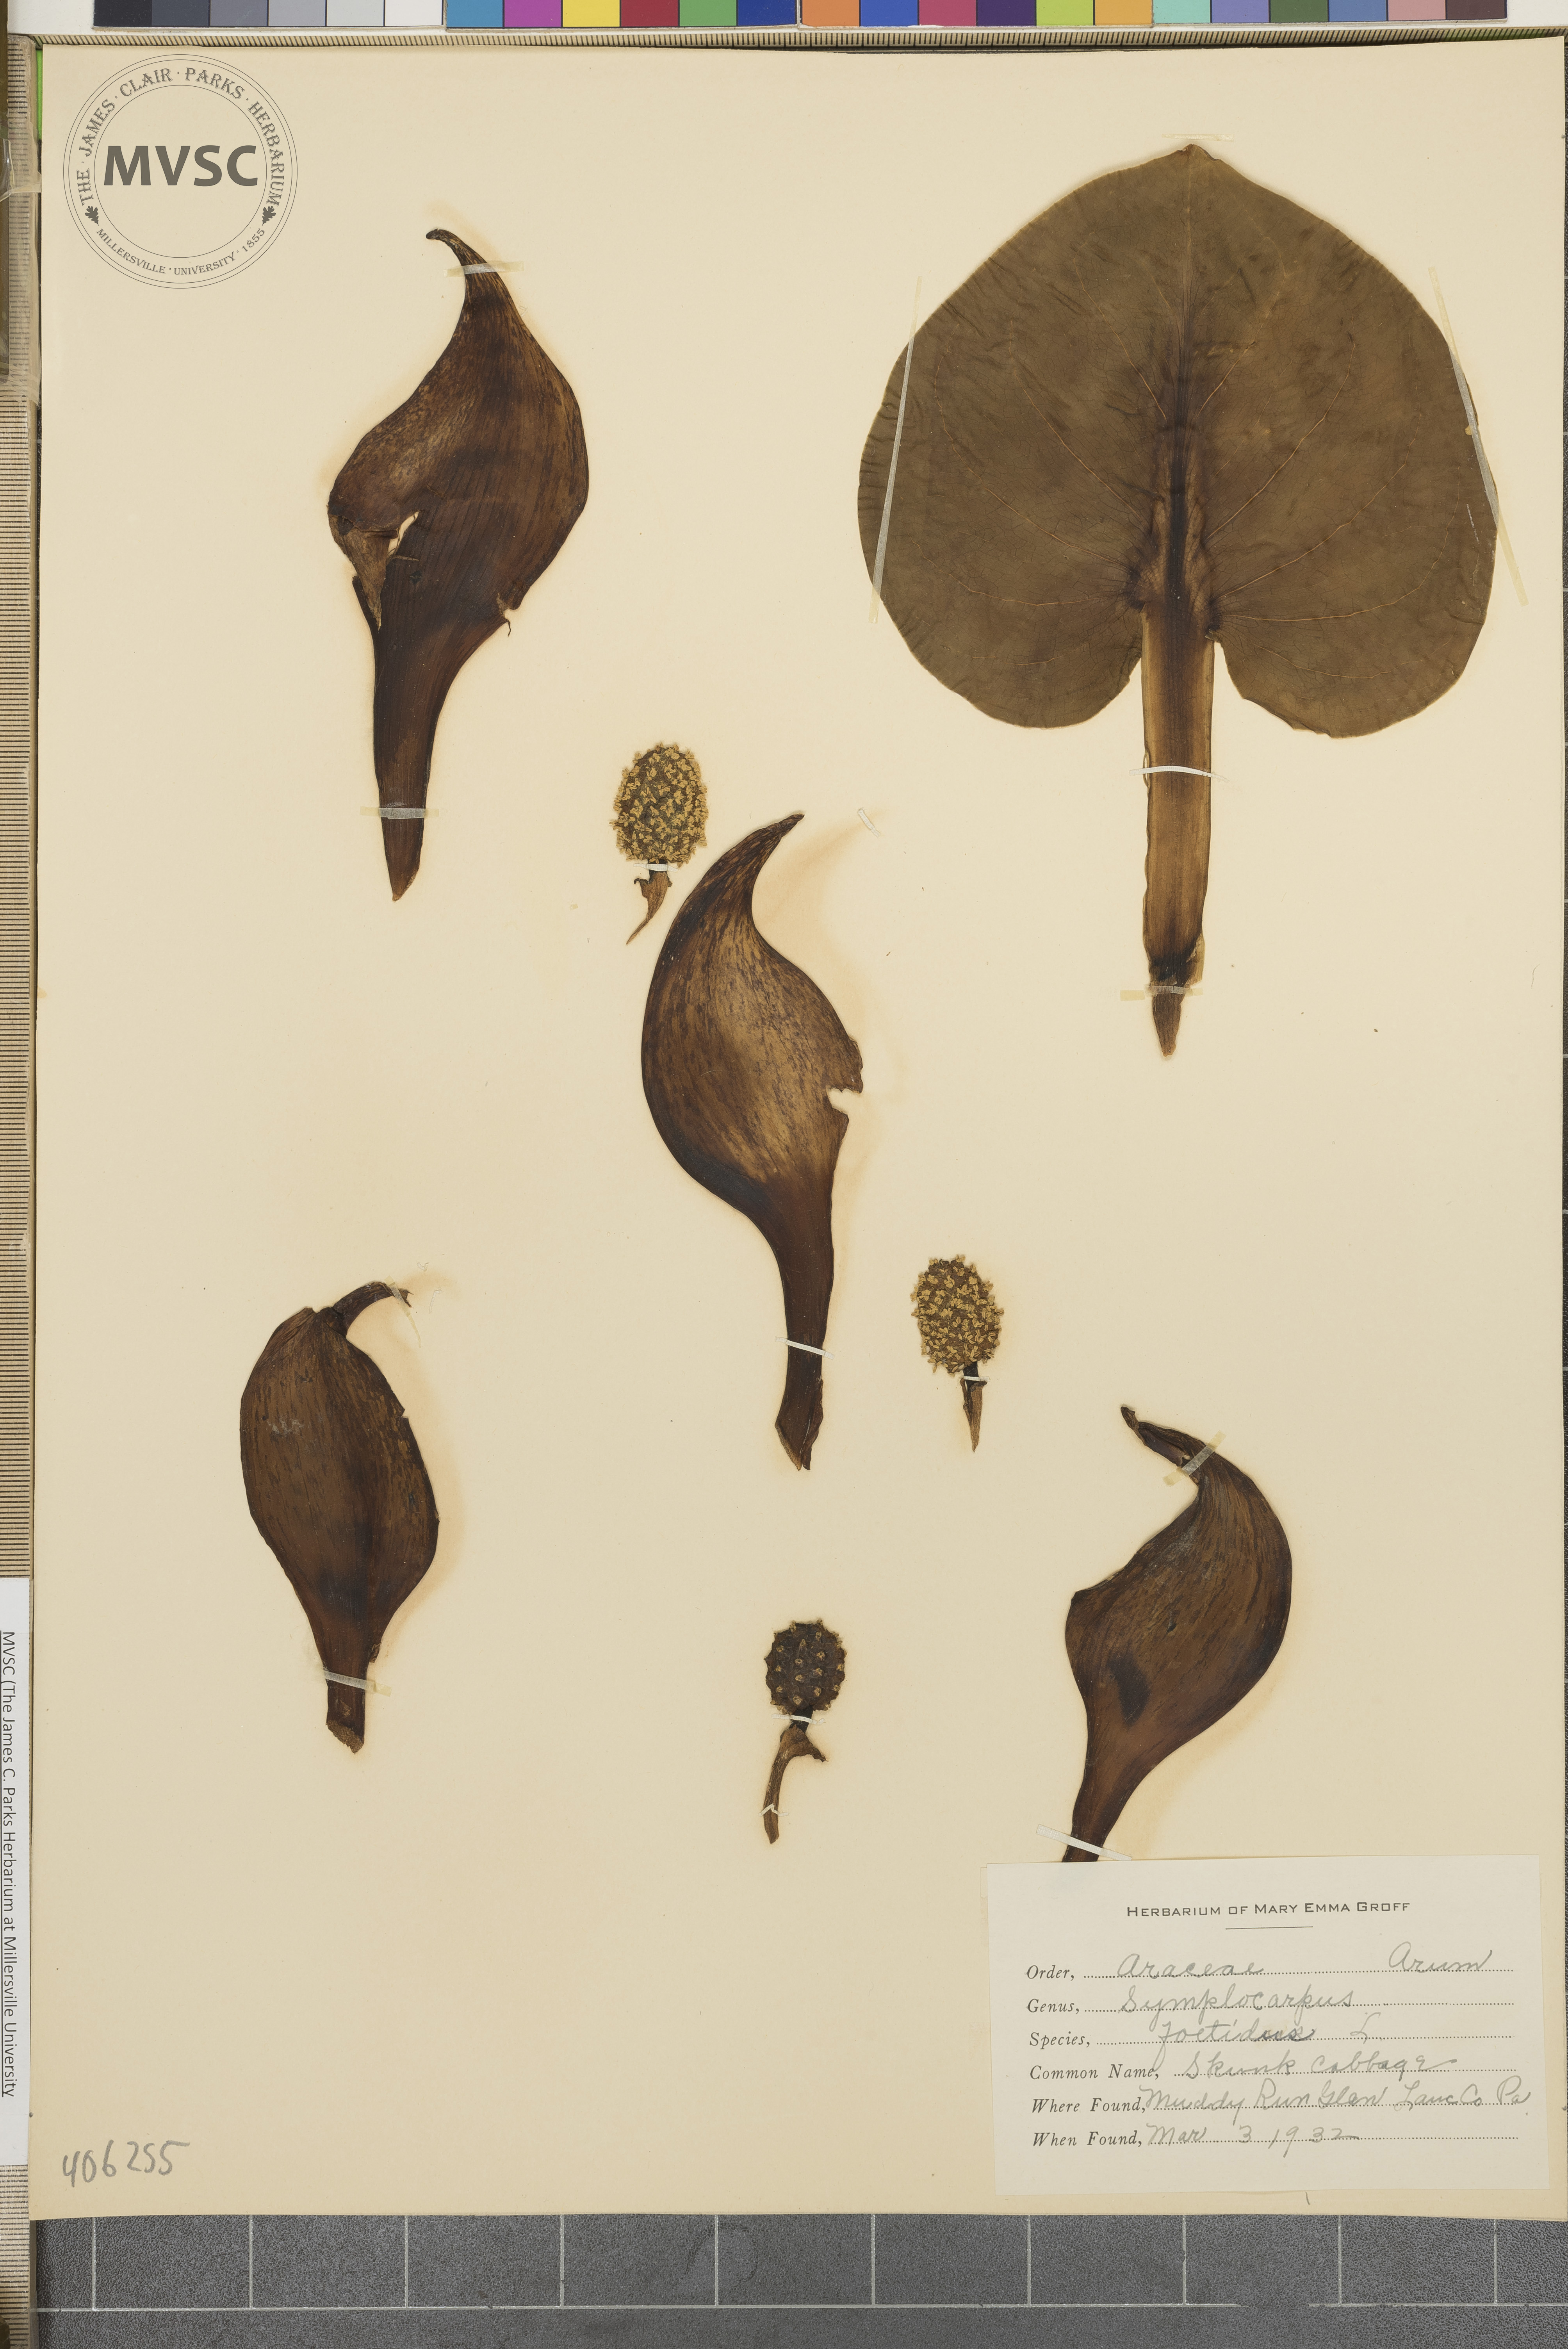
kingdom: Plantae
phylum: Tracheophyta
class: Liliopsida
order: Alismatales
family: Araceae
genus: Symplocarpus
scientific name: Symplocarpus foetidus
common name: Skunk Cabbage
